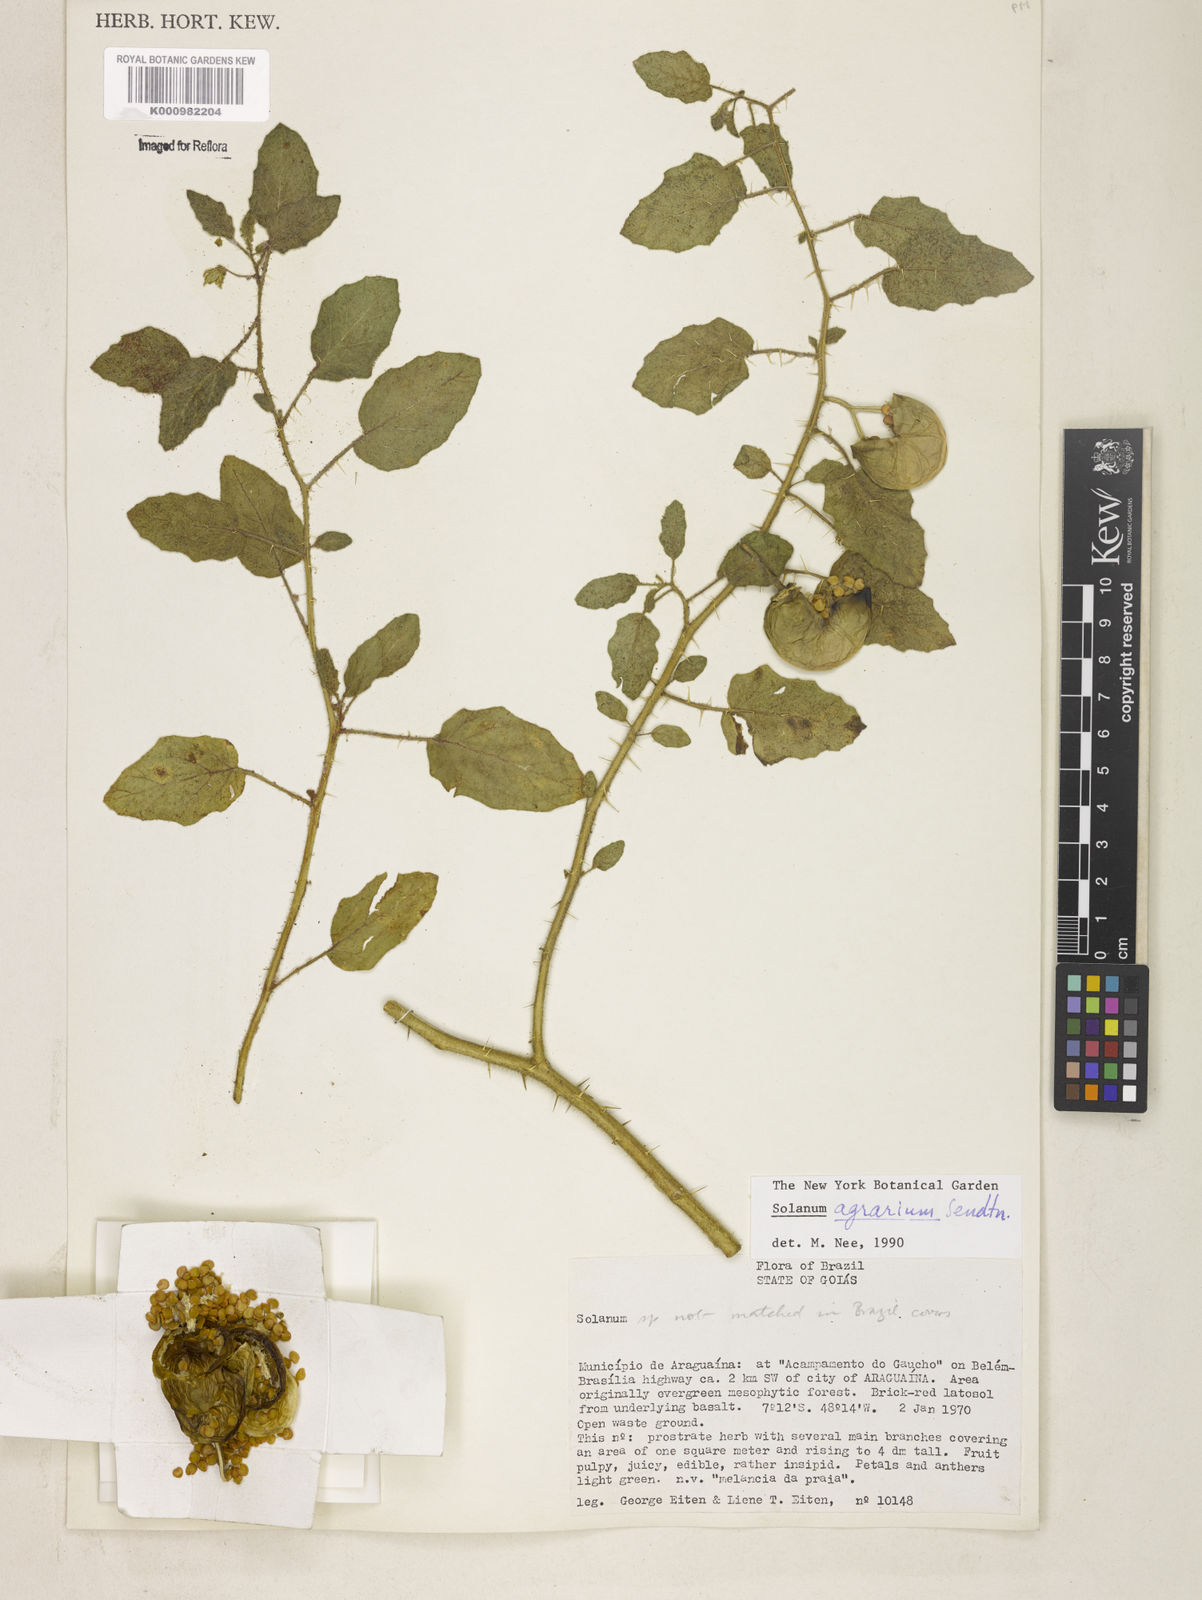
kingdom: Plantae
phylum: Tracheophyta
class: Magnoliopsida
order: Solanales
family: Solanaceae
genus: Solanum
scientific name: Solanum agrarium
